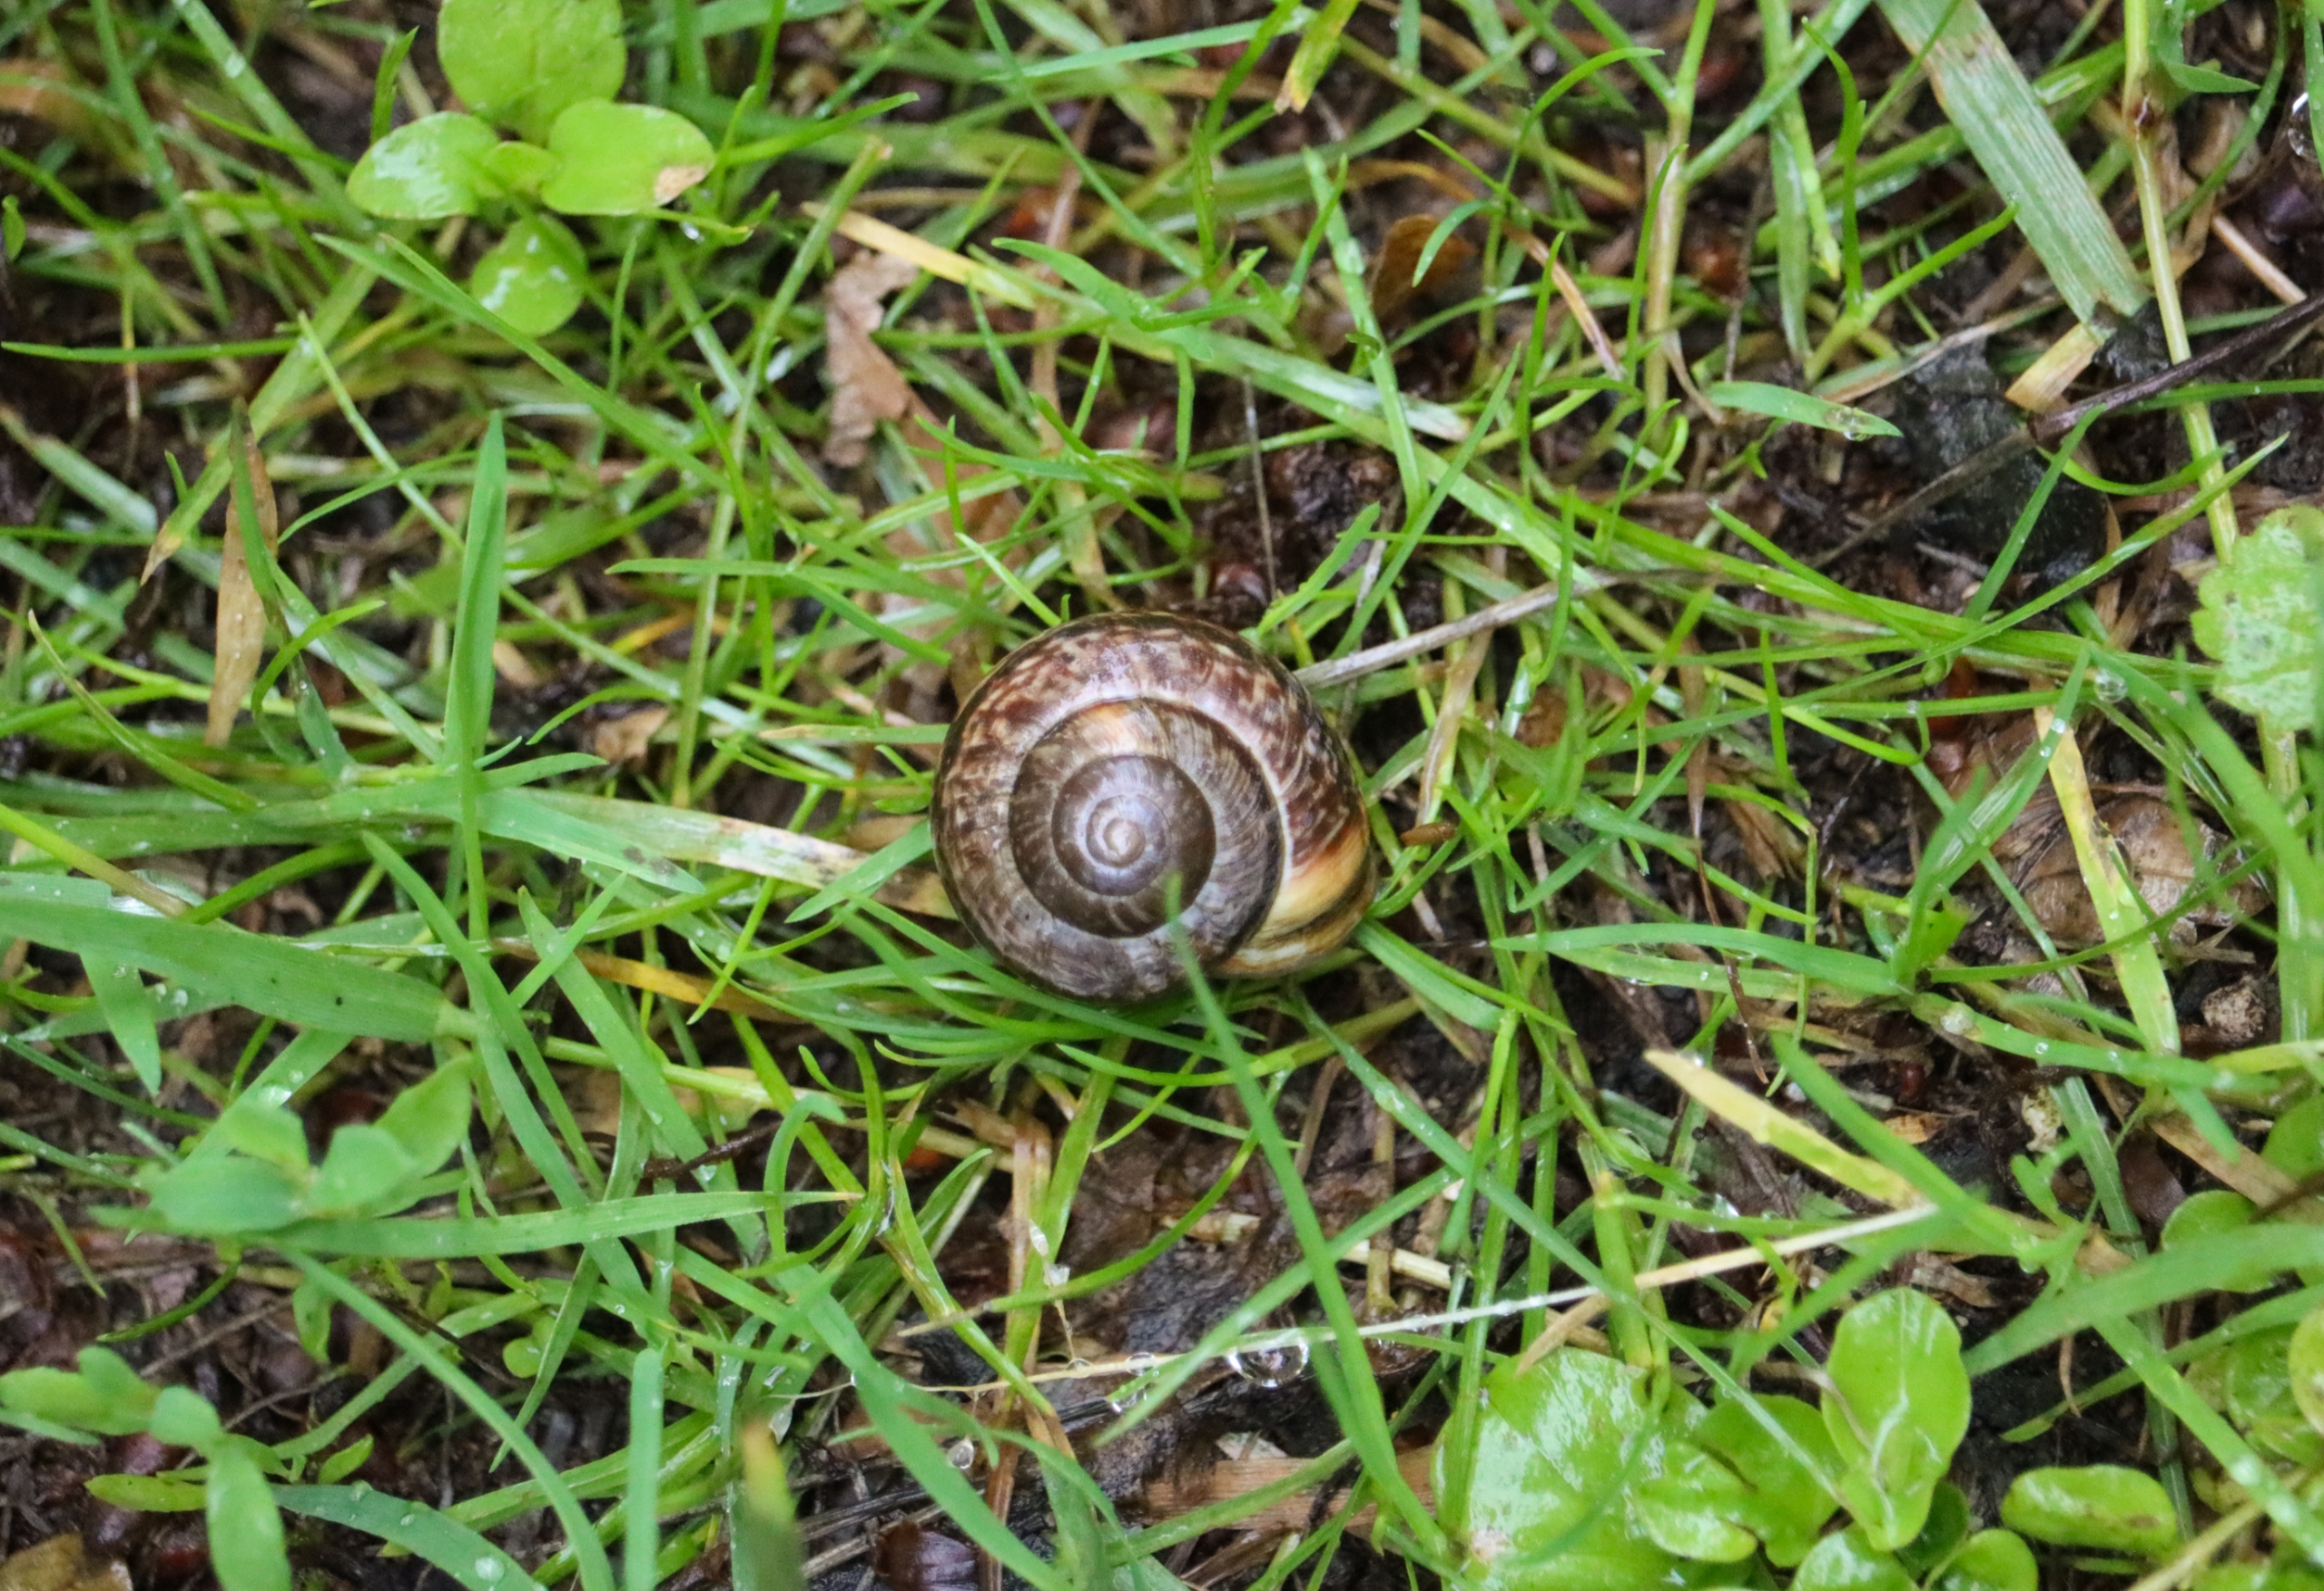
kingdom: Animalia
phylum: Mollusca
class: Gastropoda
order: Stylommatophora
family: Helicidae
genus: Arianta
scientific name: Arianta arbustorum
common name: Kratsnegl
